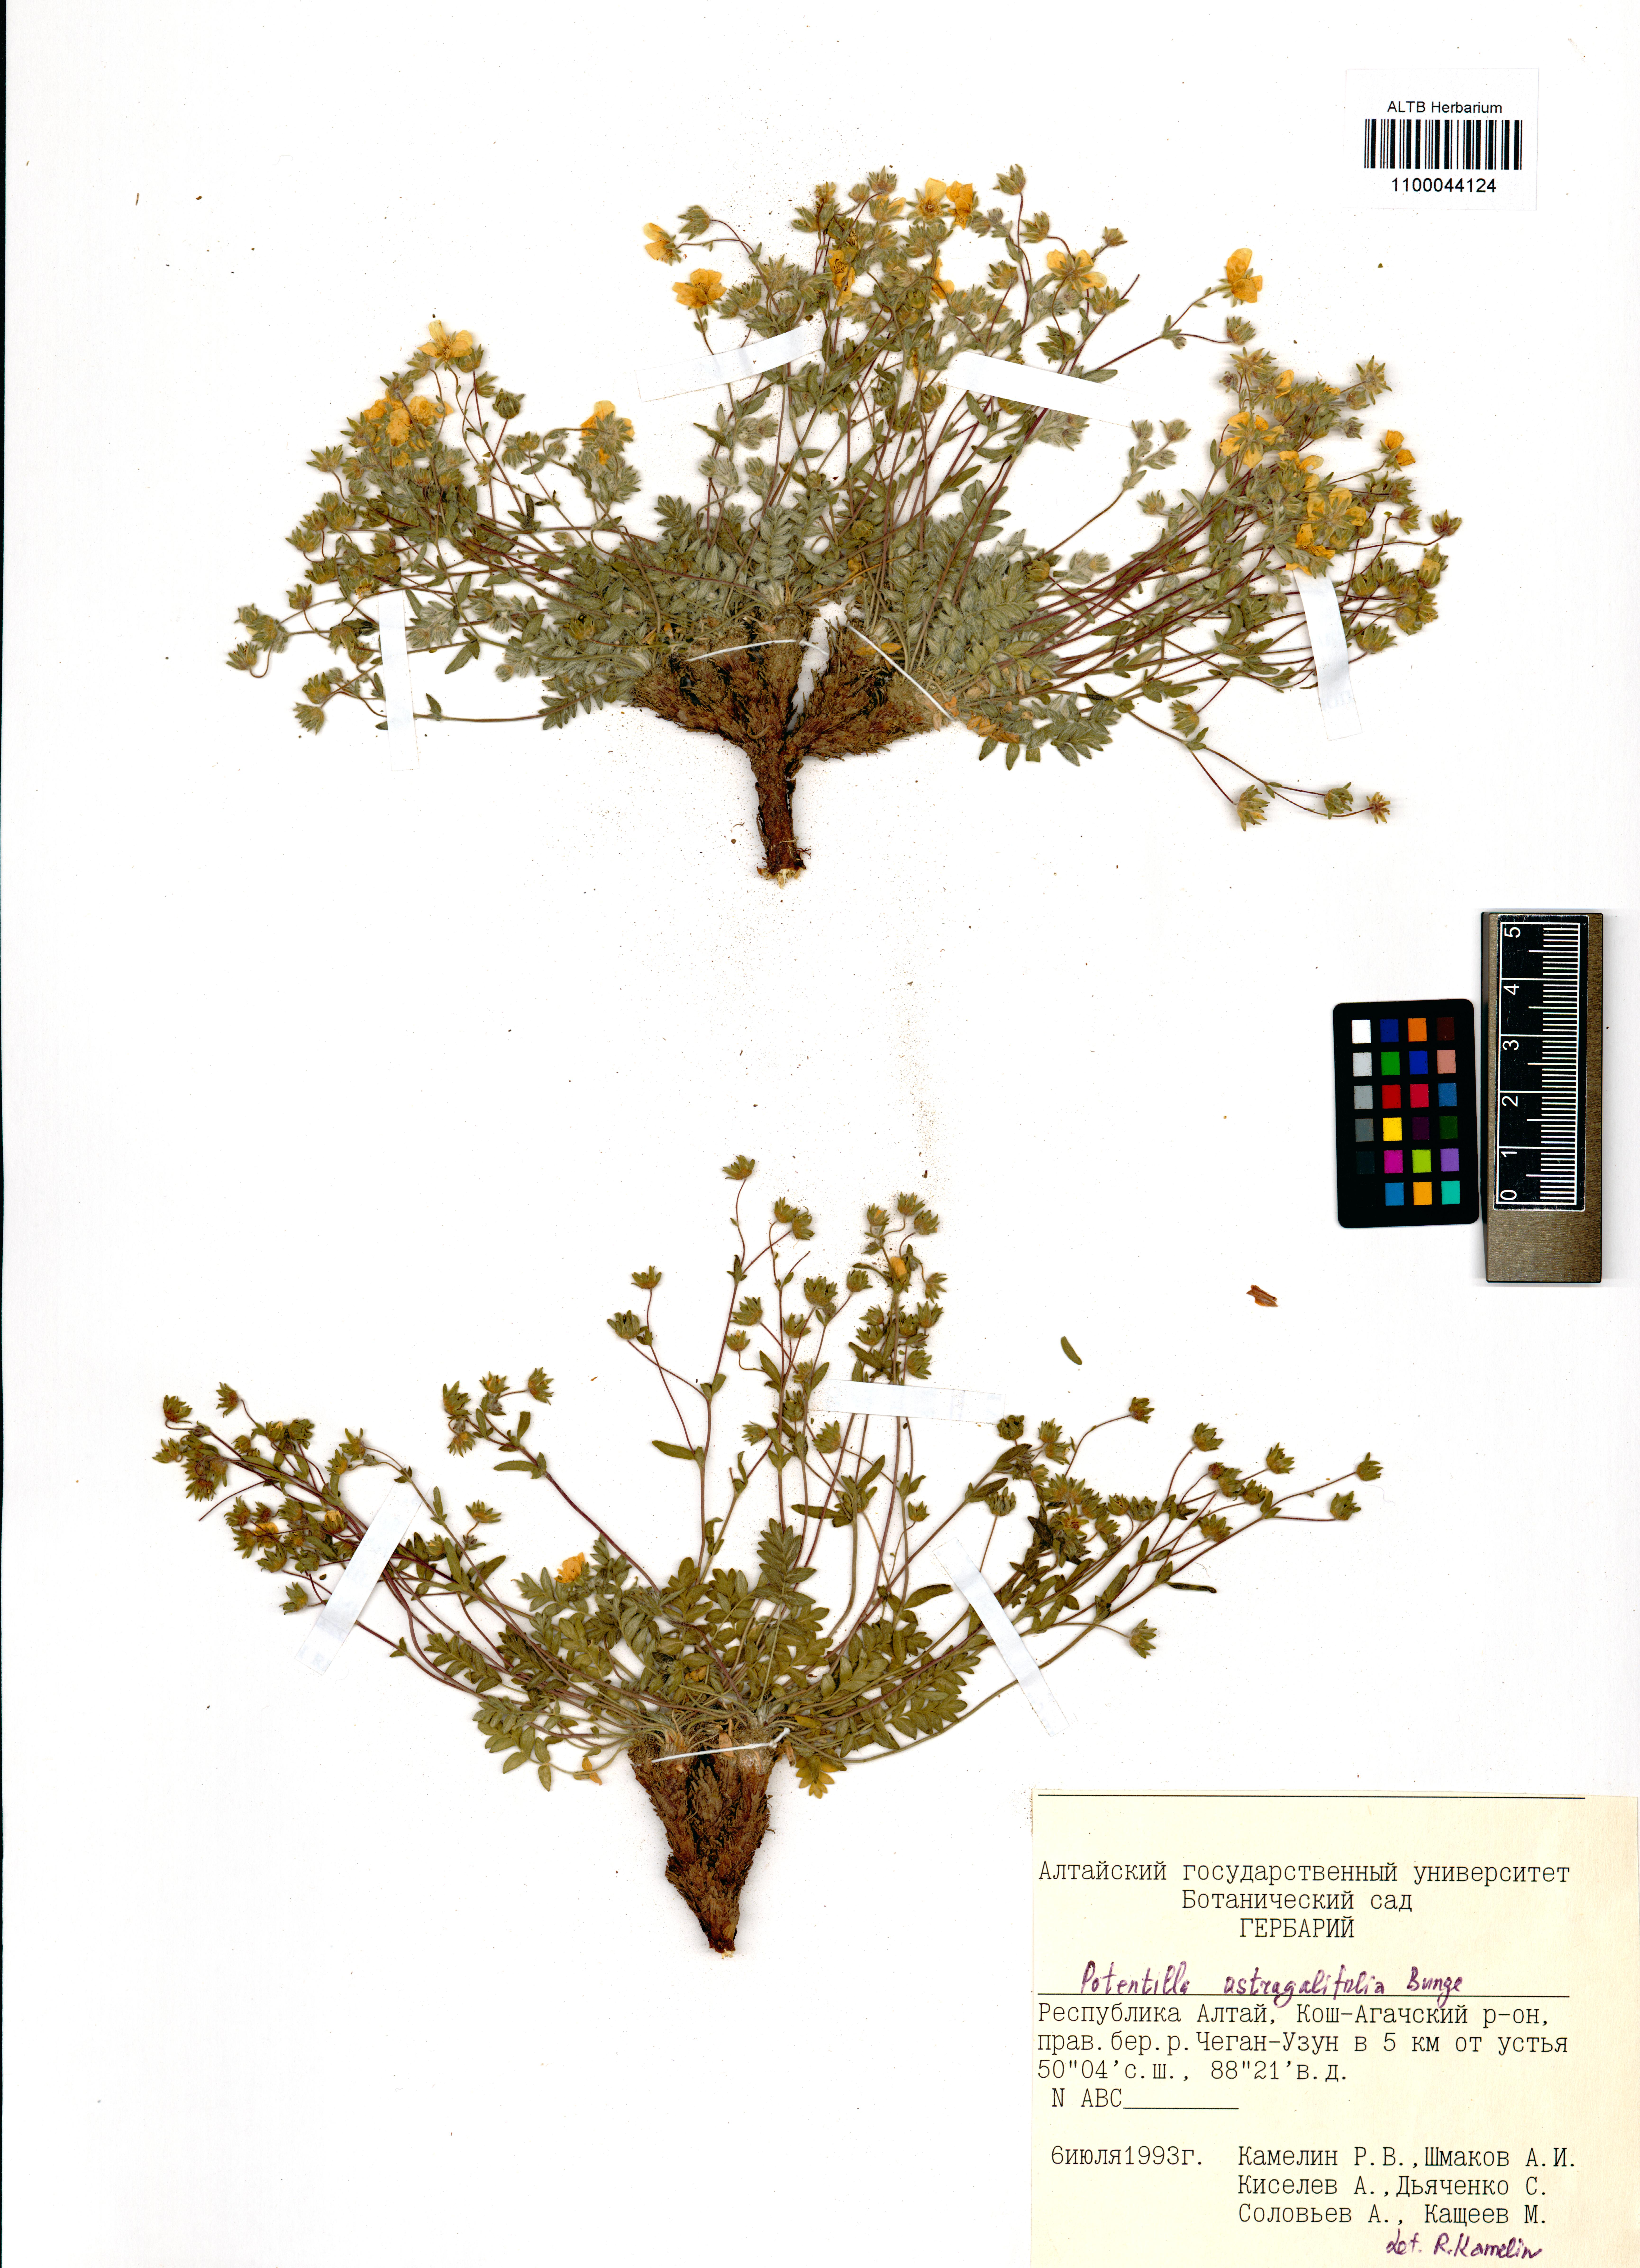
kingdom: Plantae
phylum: Tracheophyta
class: Magnoliopsida
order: Rosales
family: Rosaceae
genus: Potentilla
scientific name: Potentilla astragalifolia
